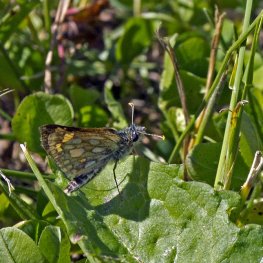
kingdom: Animalia
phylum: Arthropoda
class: Insecta
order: Lepidoptera
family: Hesperiidae
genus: Carterocephalus
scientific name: Carterocephalus palaemon
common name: Chequered Skipper
